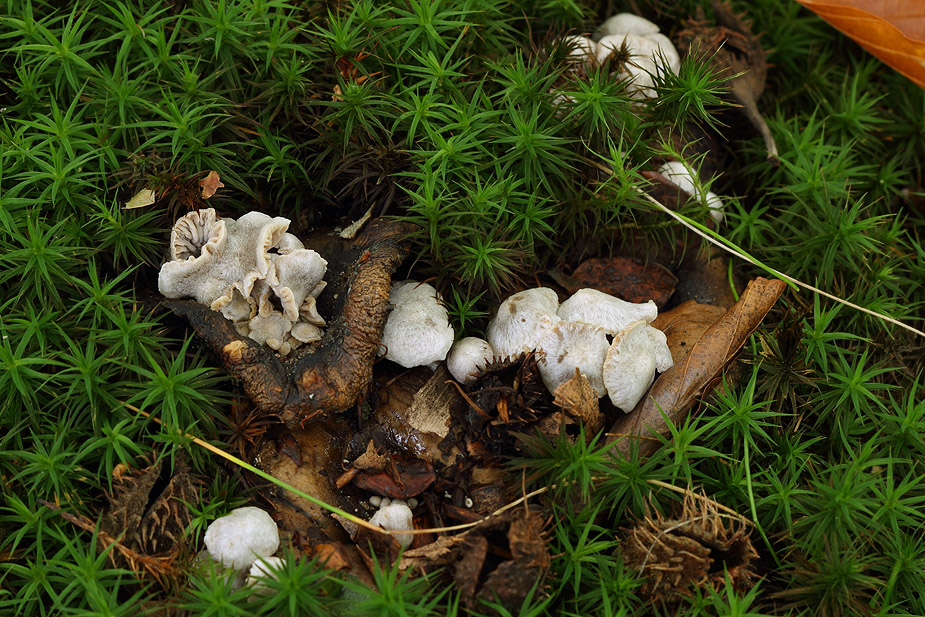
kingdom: Fungi
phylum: Basidiomycota
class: Agaricomycetes
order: Agaricales
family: Lyophyllaceae
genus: Asterophora
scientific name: Asterophora parasitica
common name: grå snyltehat
